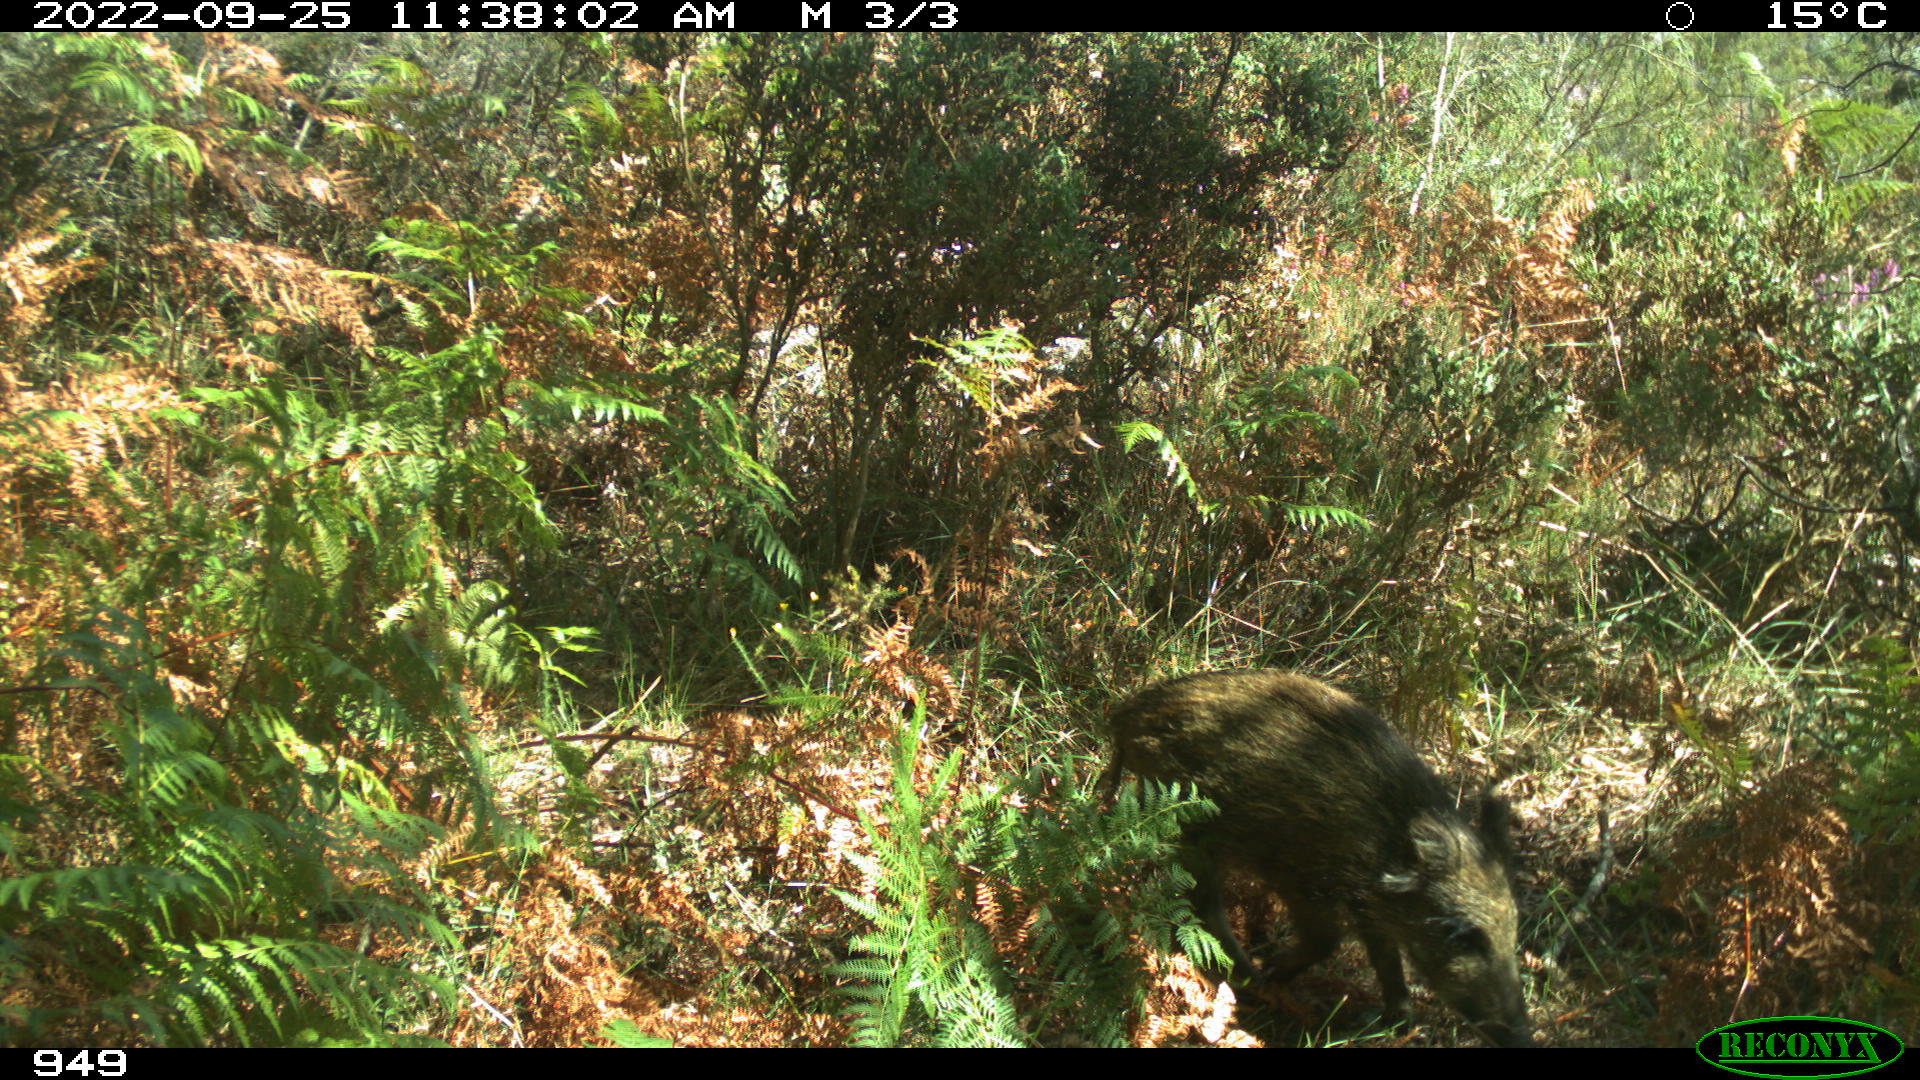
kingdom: Animalia
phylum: Chordata
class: Mammalia
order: Artiodactyla
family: Suidae
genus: Sus
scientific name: Sus scrofa
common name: Wild boar
